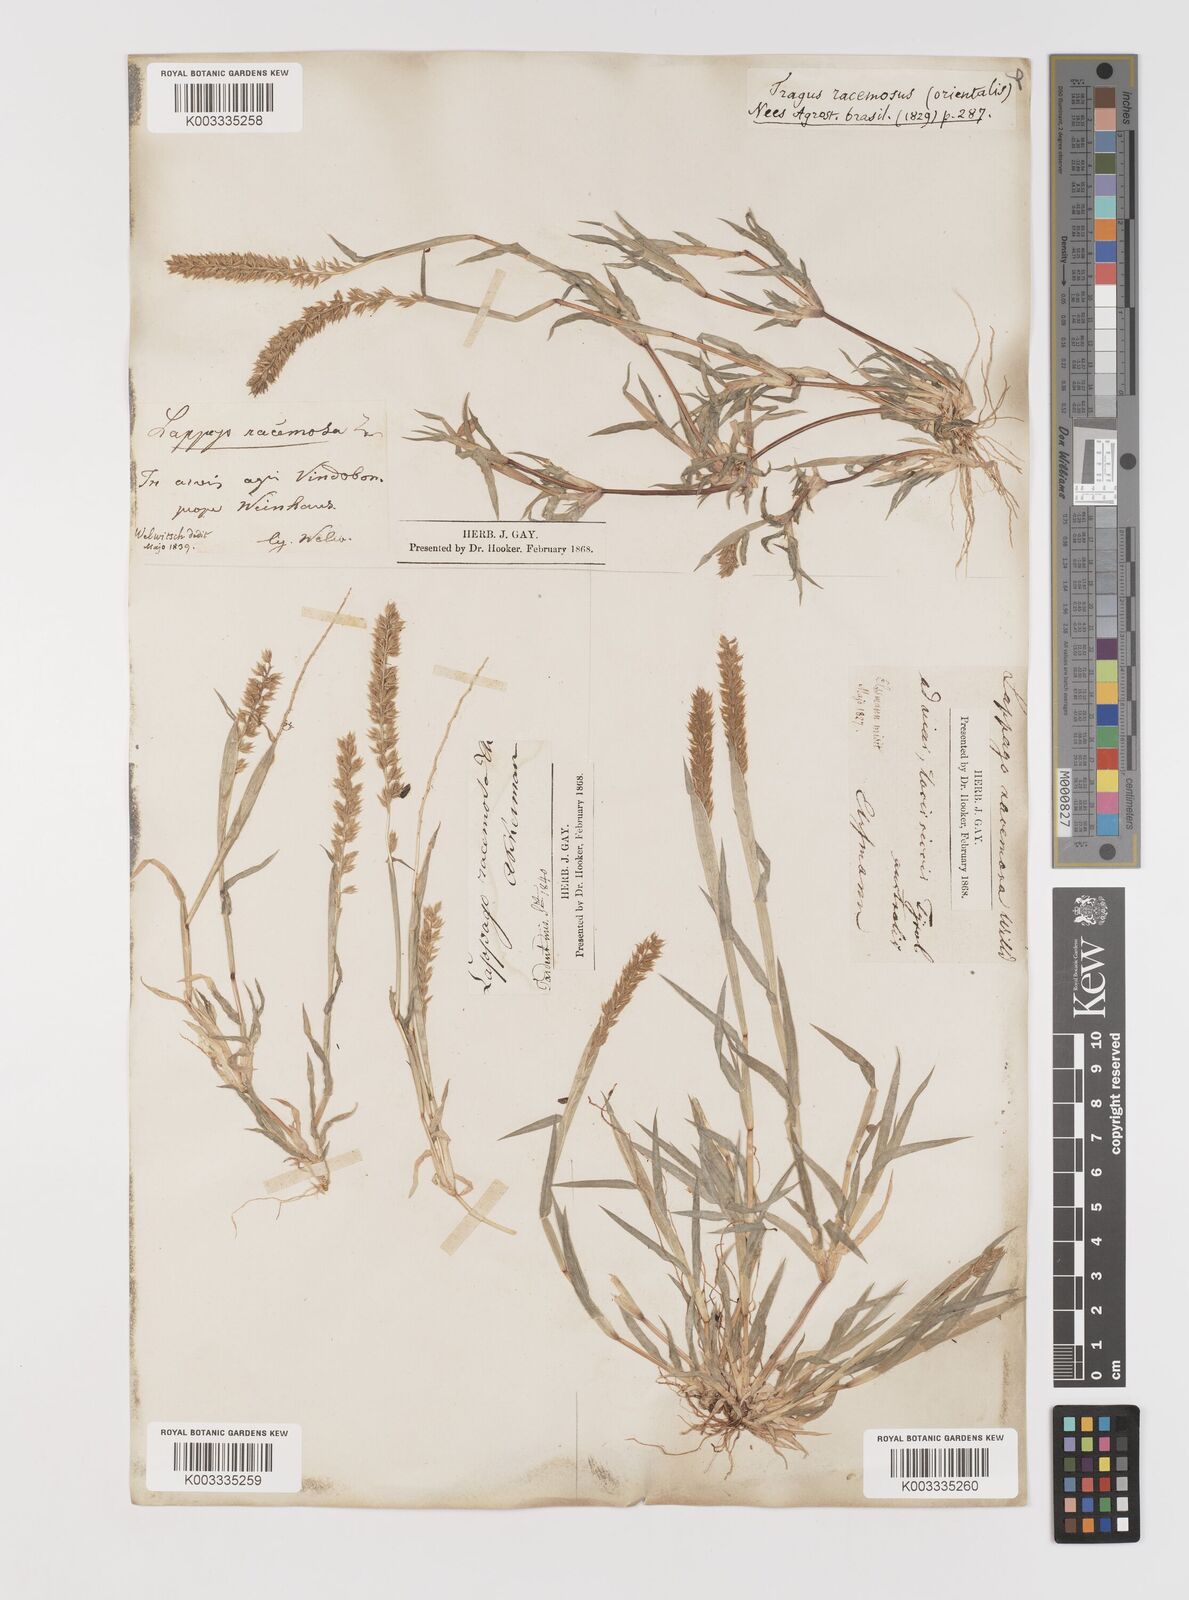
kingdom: Plantae
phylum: Tracheophyta
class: Liliopsida
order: Poales
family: Poaceae
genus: Tragus
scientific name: Tragus racemosus
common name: European bur-grass
